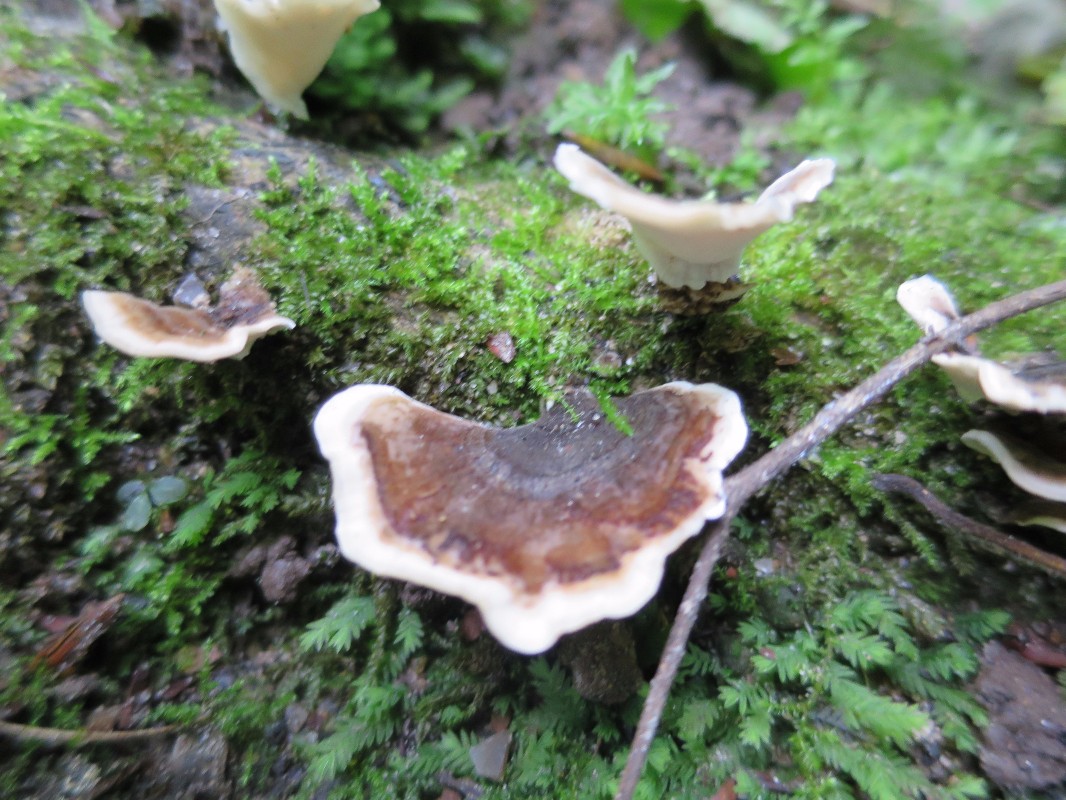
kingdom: Fungi
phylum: Basidiomycota
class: Agaricomycetes
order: Polyporales
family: Polyporaceae
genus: Trametes
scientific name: Trametes versicolor
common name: broget læderporesvamp
